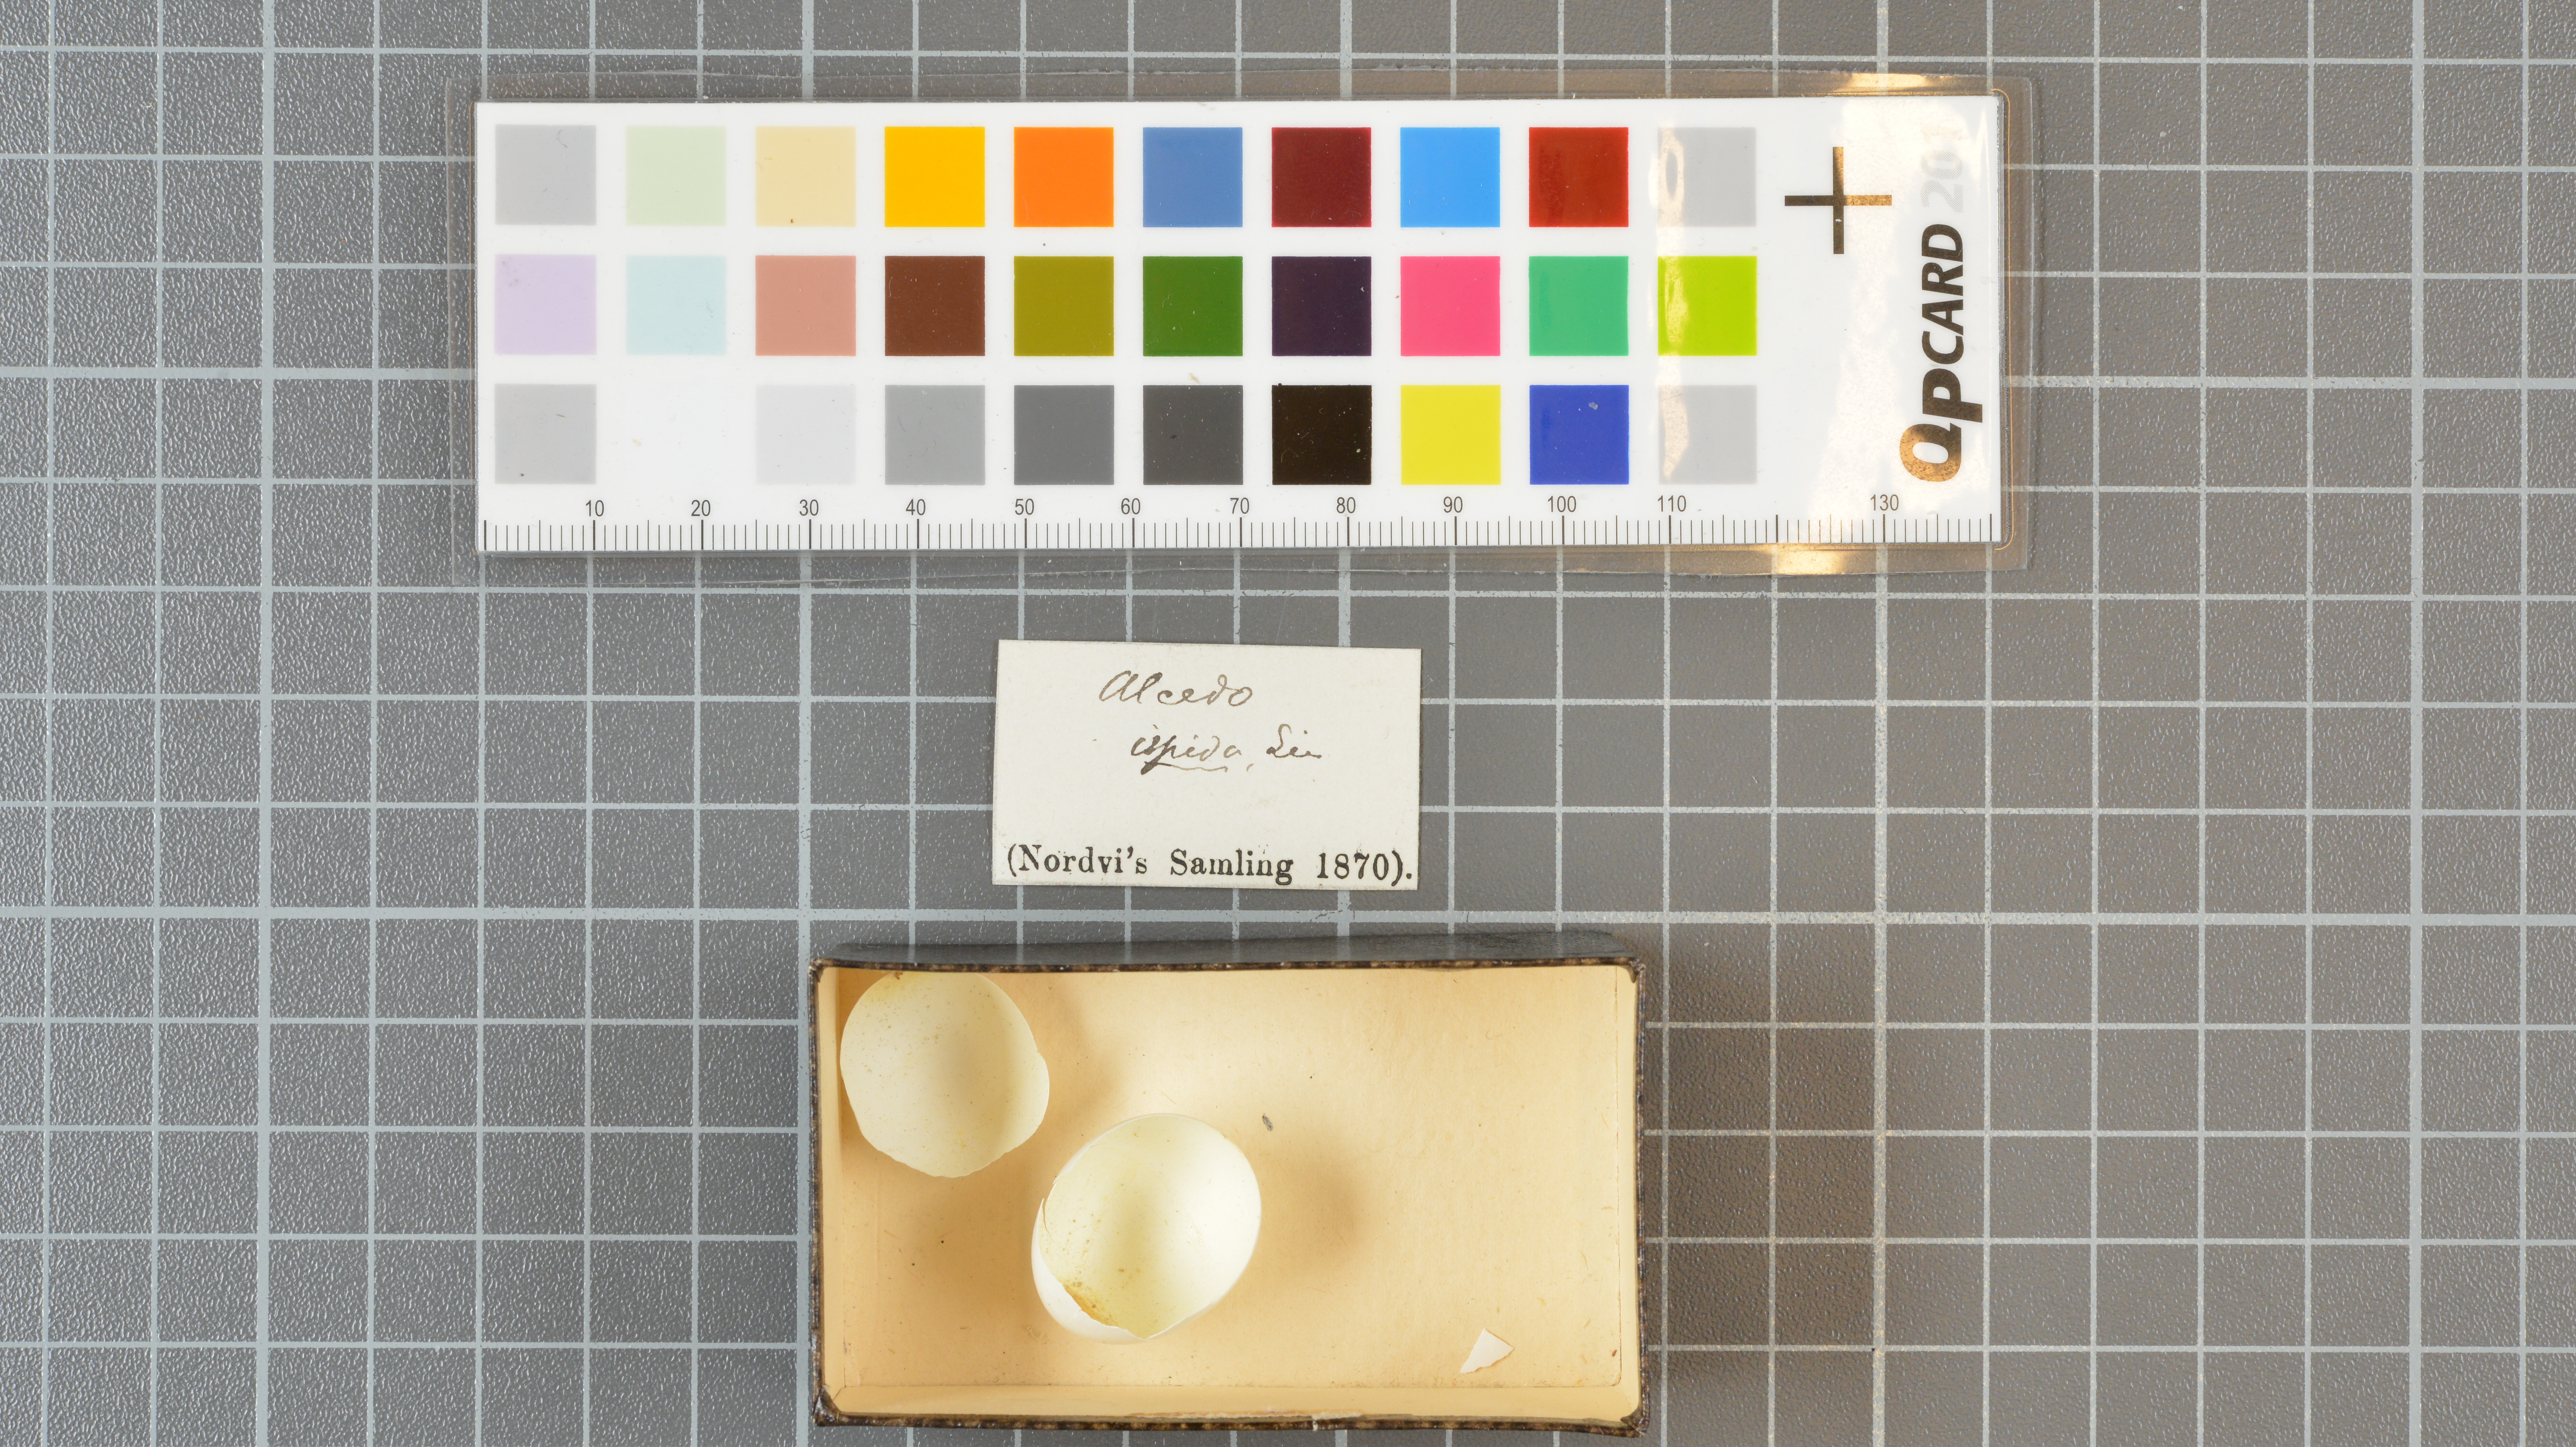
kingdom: Animalia
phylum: Chordata
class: Aves
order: Coraciiformes
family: Alcedinidae
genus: Alcedo
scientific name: Alcedo atthis
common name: Common kingfisher
